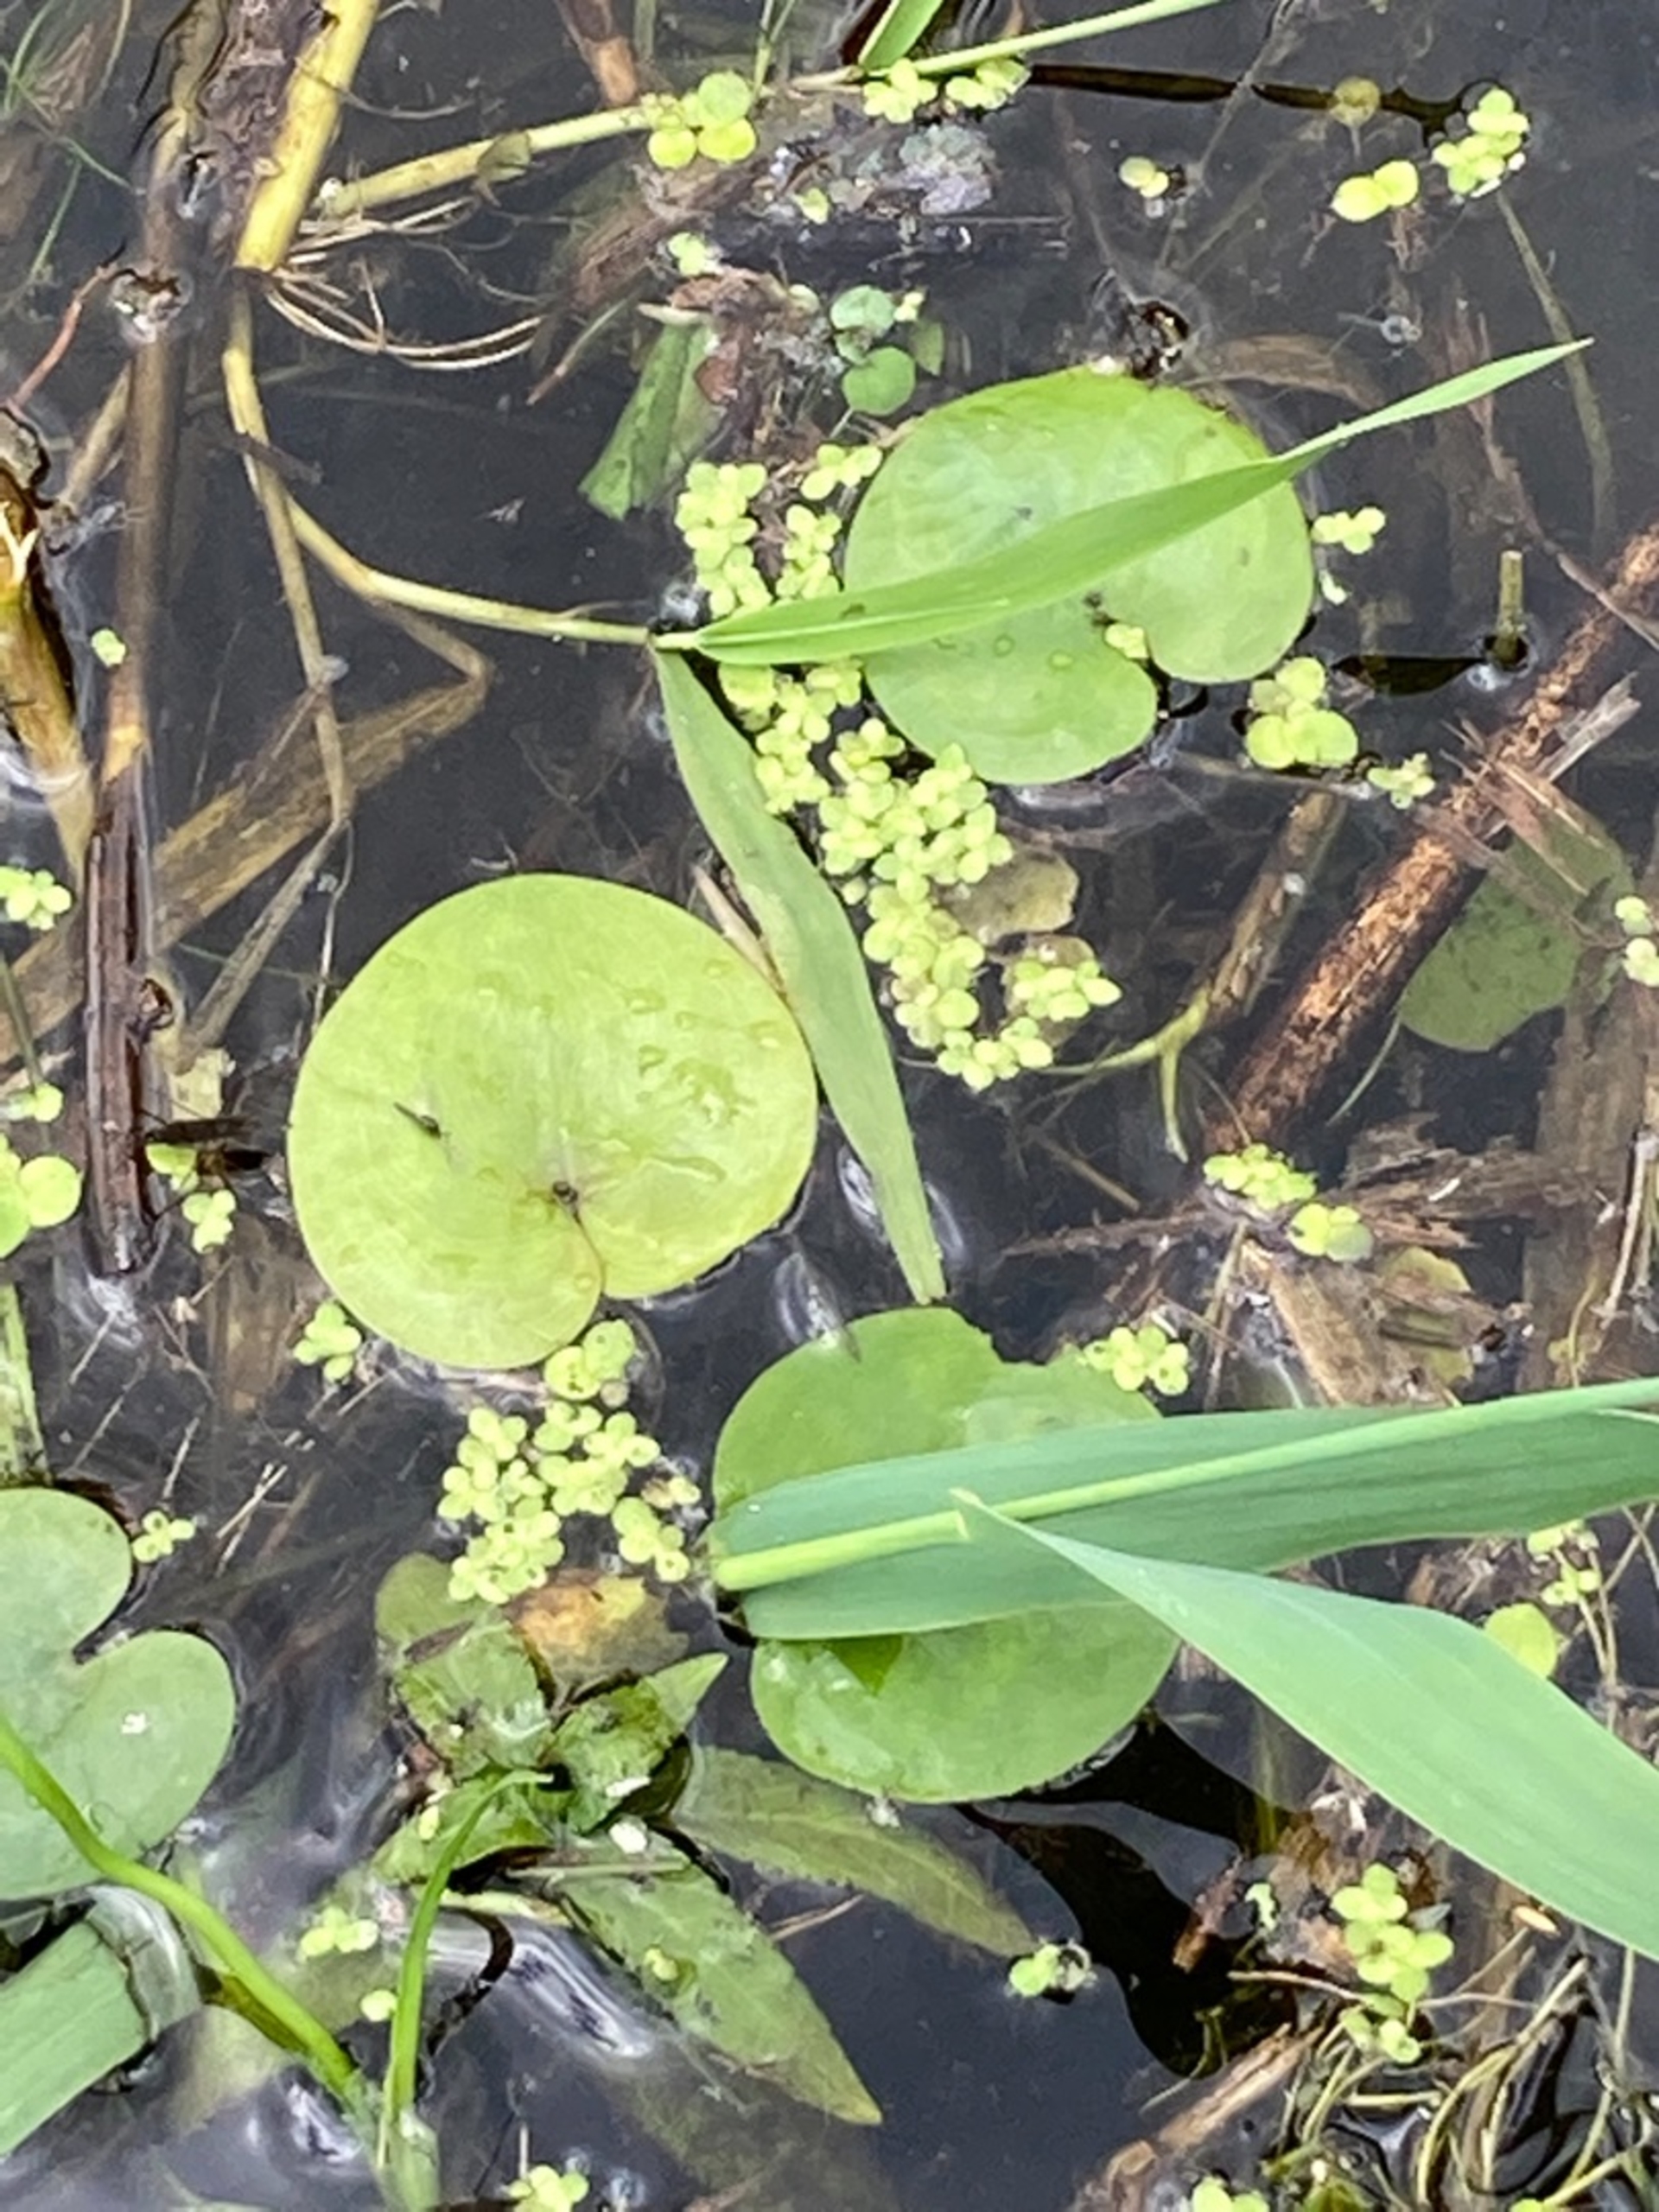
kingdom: Plantae
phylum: Tracheophyta
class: Liliopsida
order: Alismatales
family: Hydrocharitaceae
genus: Hydrocharis
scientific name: Hydrocharis morsus-ranae
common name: Frøbid
